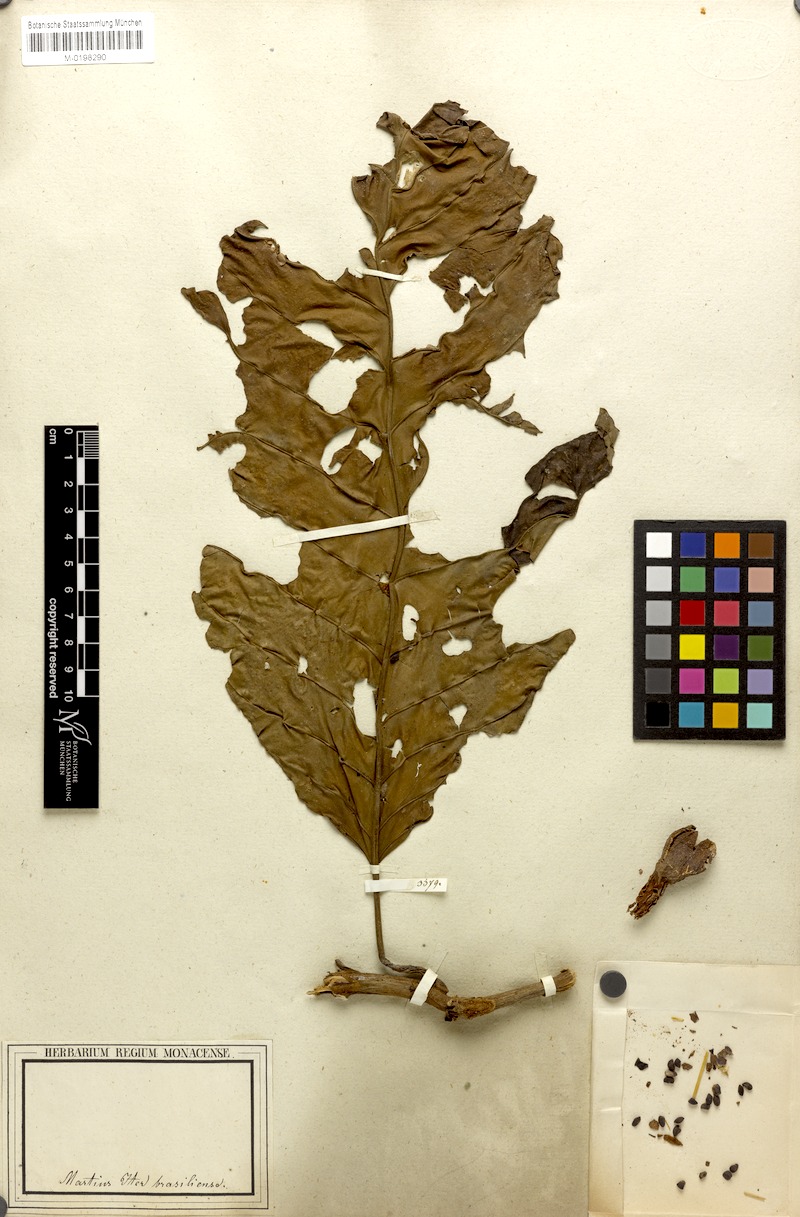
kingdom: Plantae
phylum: Tracheophyta
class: Magnoliopsida
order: Gentianales
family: Rubiaceae
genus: Pentagonia
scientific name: Pentagonia spathicalyx
